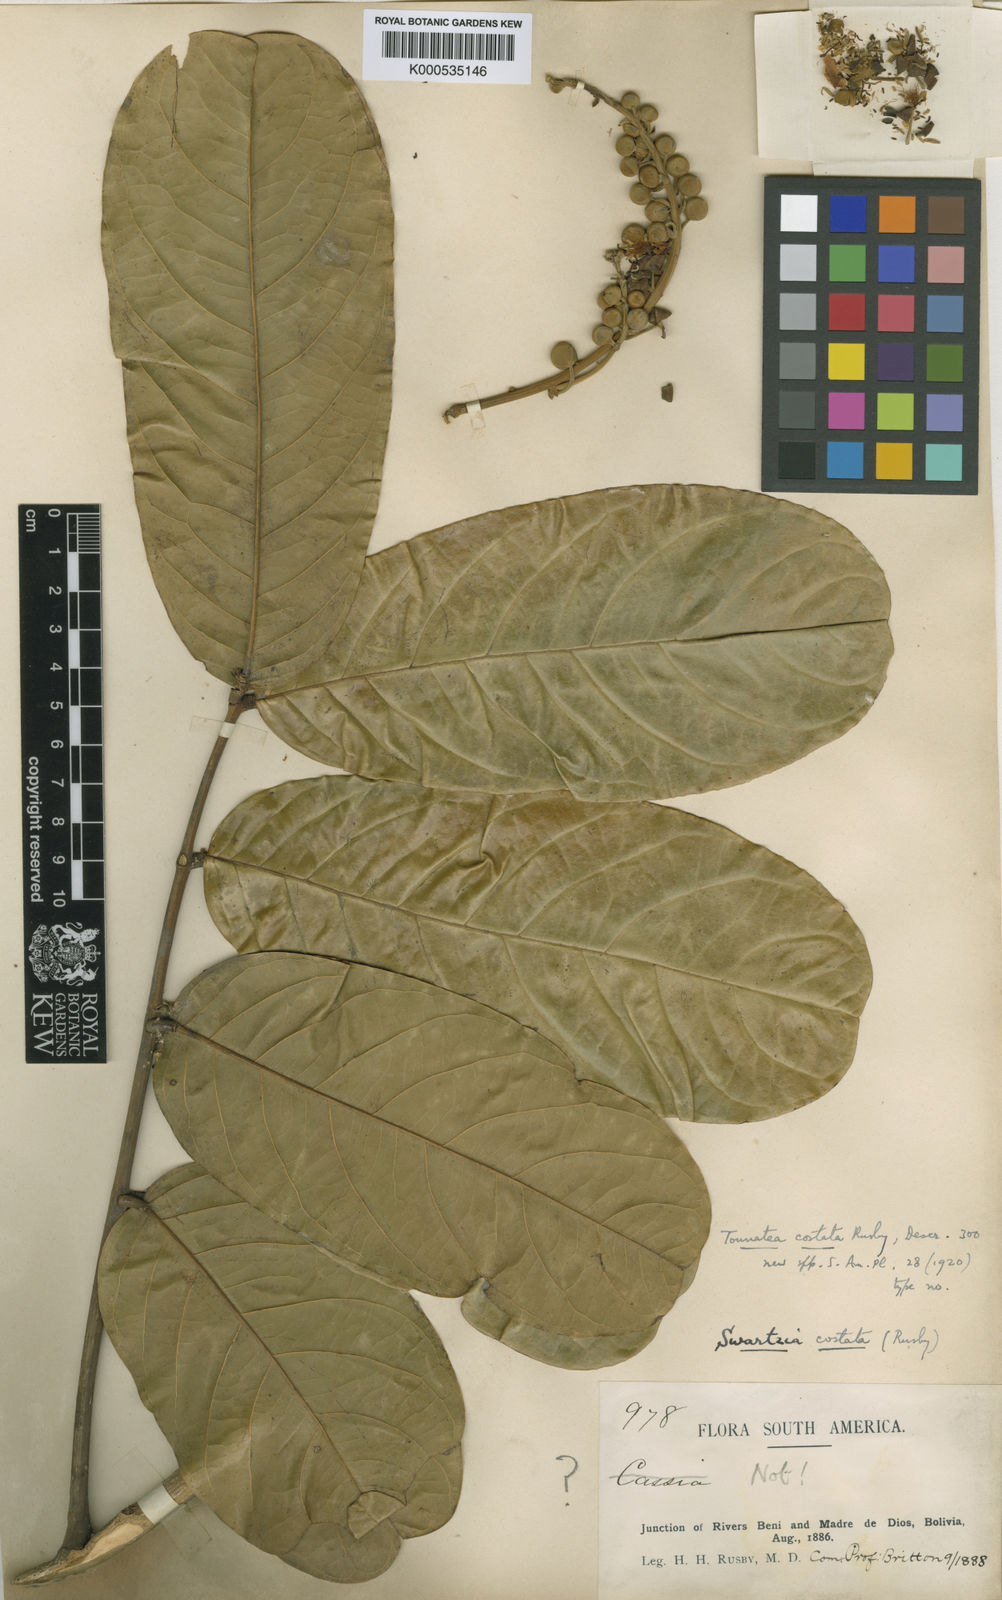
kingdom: Plantae
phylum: Tracheophyta
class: Magnoliopsida
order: Fabales
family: Fabaceae
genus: Swartzia
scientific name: Swartzia costata
